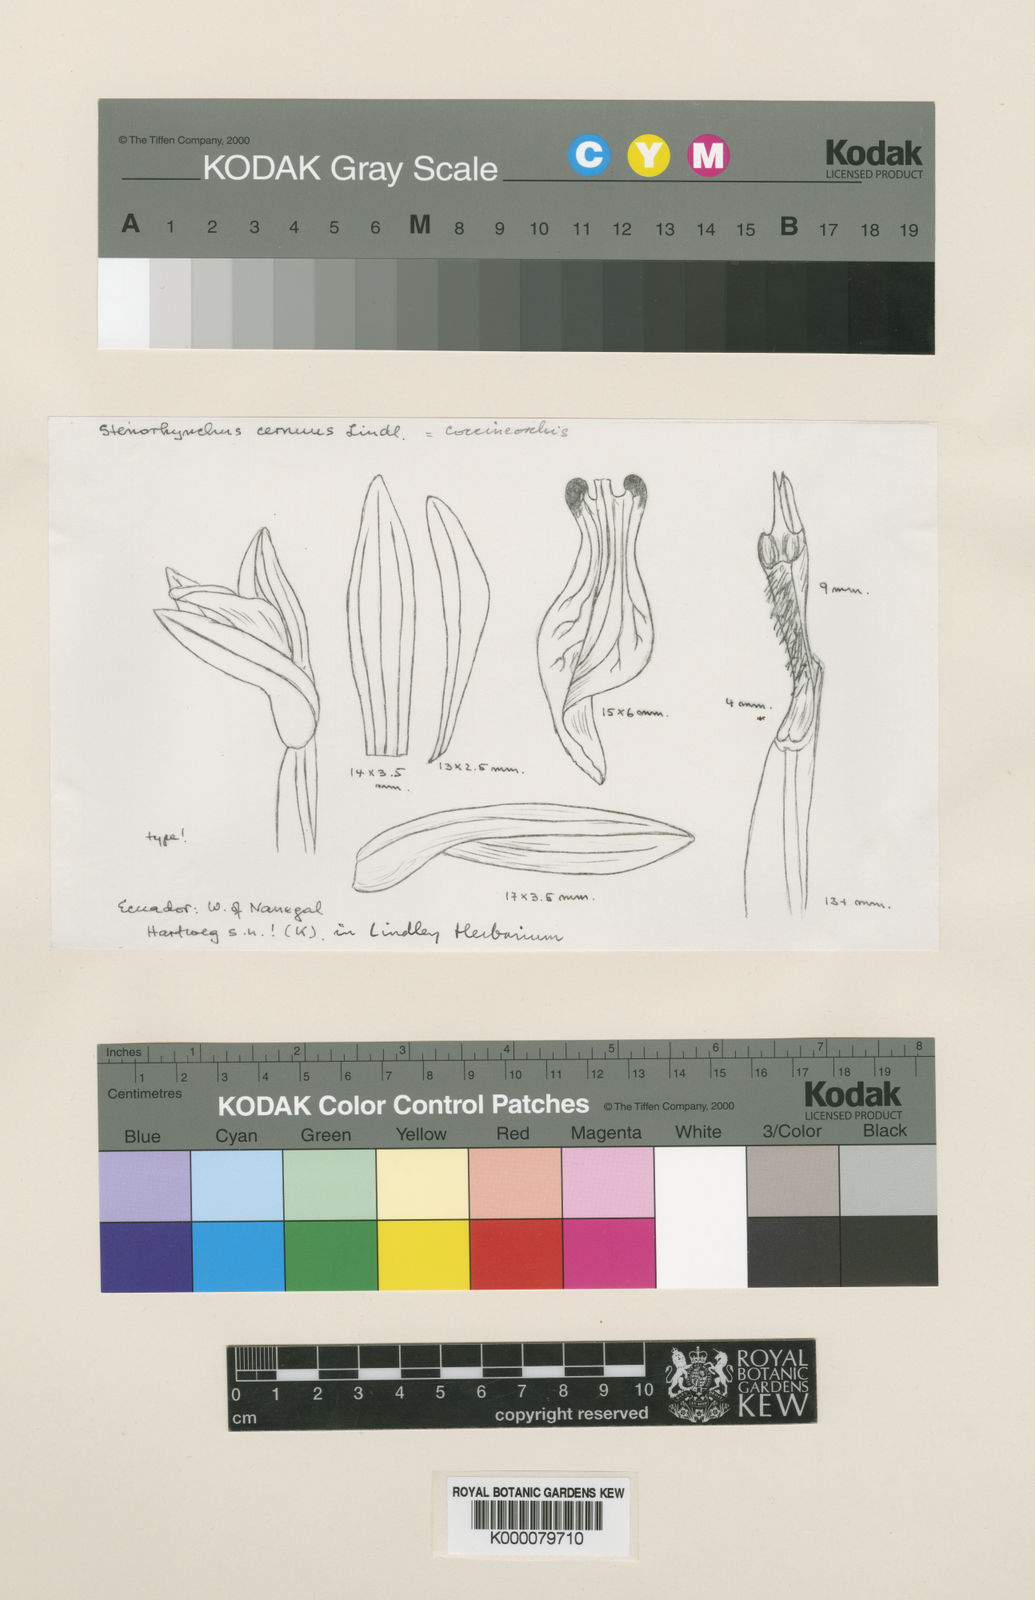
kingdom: Plantae
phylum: Tracheophyta
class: Liliopsida
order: Asparagales
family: Orchidaceae
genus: Coccineorchis
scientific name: Coccineorchis cernua
